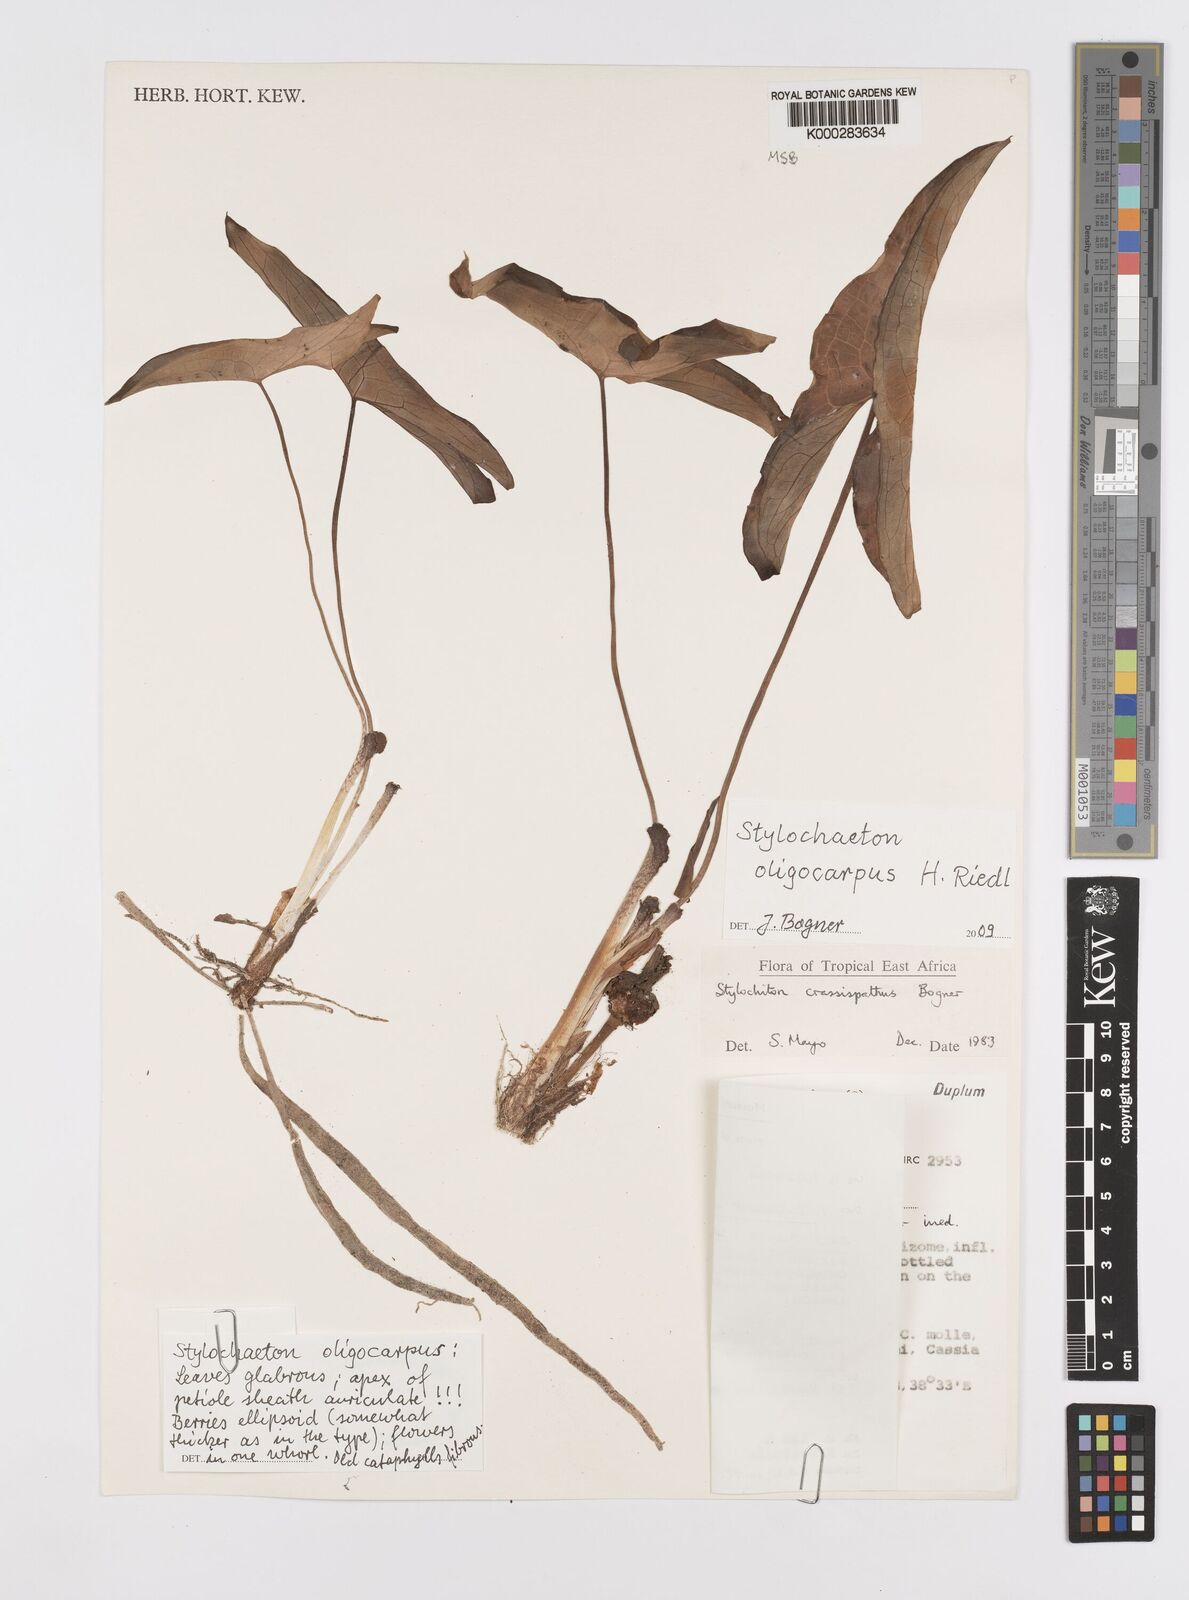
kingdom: Plantae
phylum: Tracheophyta
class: Liliopsida
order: Alismatales
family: Araceae
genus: Stylochaeton
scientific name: Stylochaeton oligocarpum
